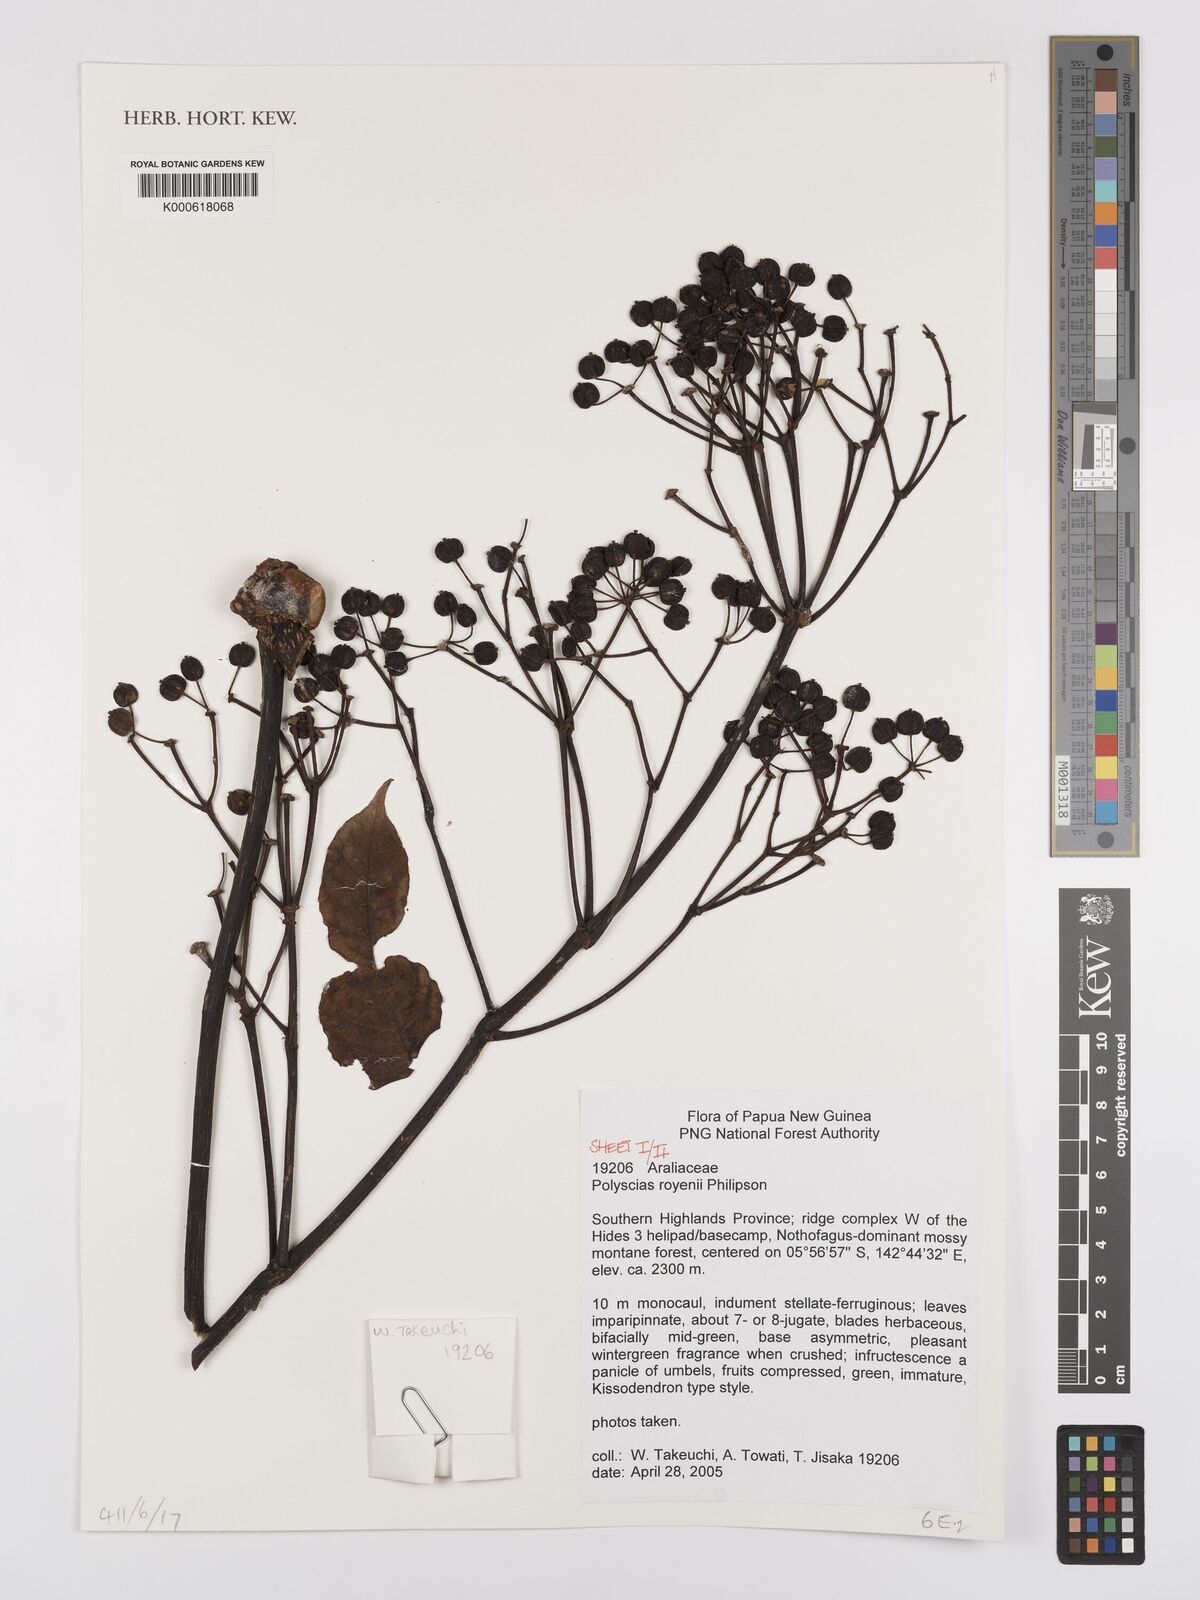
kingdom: Plantae
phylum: Tracheophyta
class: Magnoliopsida
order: Apiales
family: Araliaceae
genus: Polyscias
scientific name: Polyscias royenii
